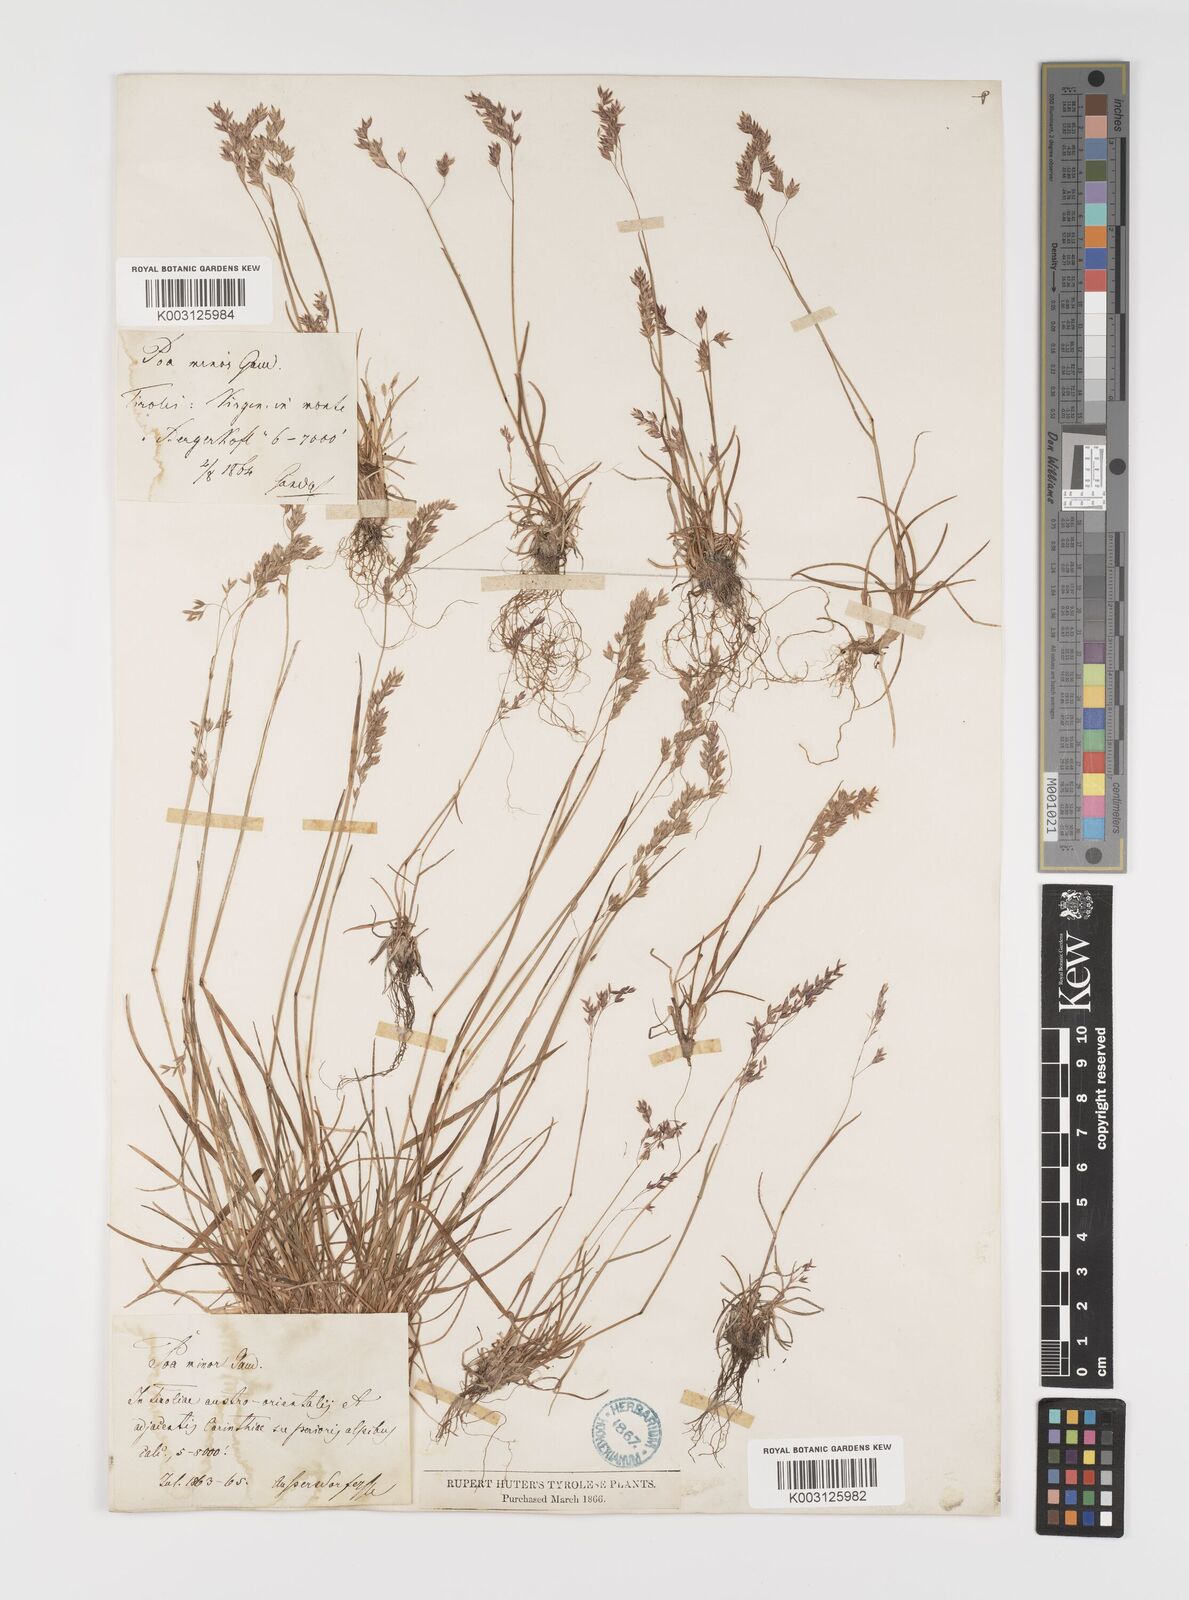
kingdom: Plantae
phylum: Tracheophyta
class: Liliopsida
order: Poales
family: Poaceae
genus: Poa
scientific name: Poa minor
